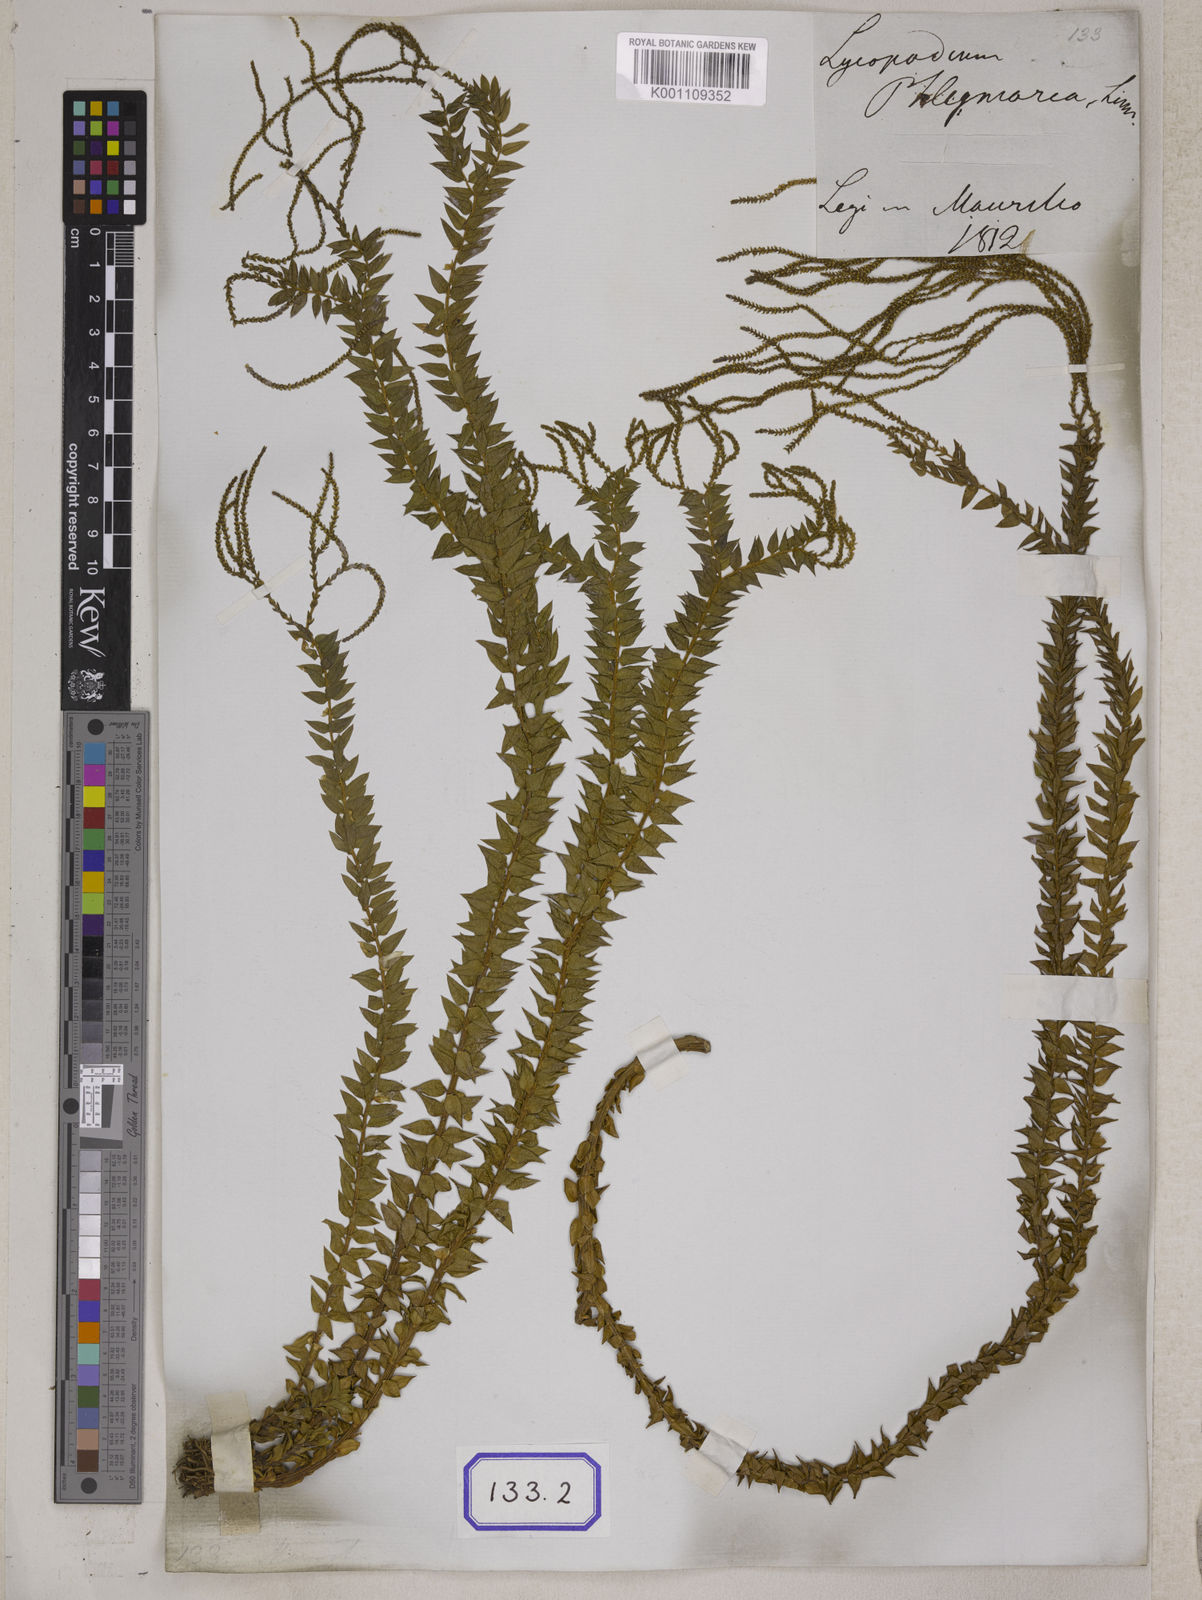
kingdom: Plantae
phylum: Tracheophyta
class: Lycopodiopsida
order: Lycopodiales
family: Lycopodiaceae
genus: Phlegmariurus
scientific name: Phlegmariurus phlegmaria
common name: Coarse tassel-fern
